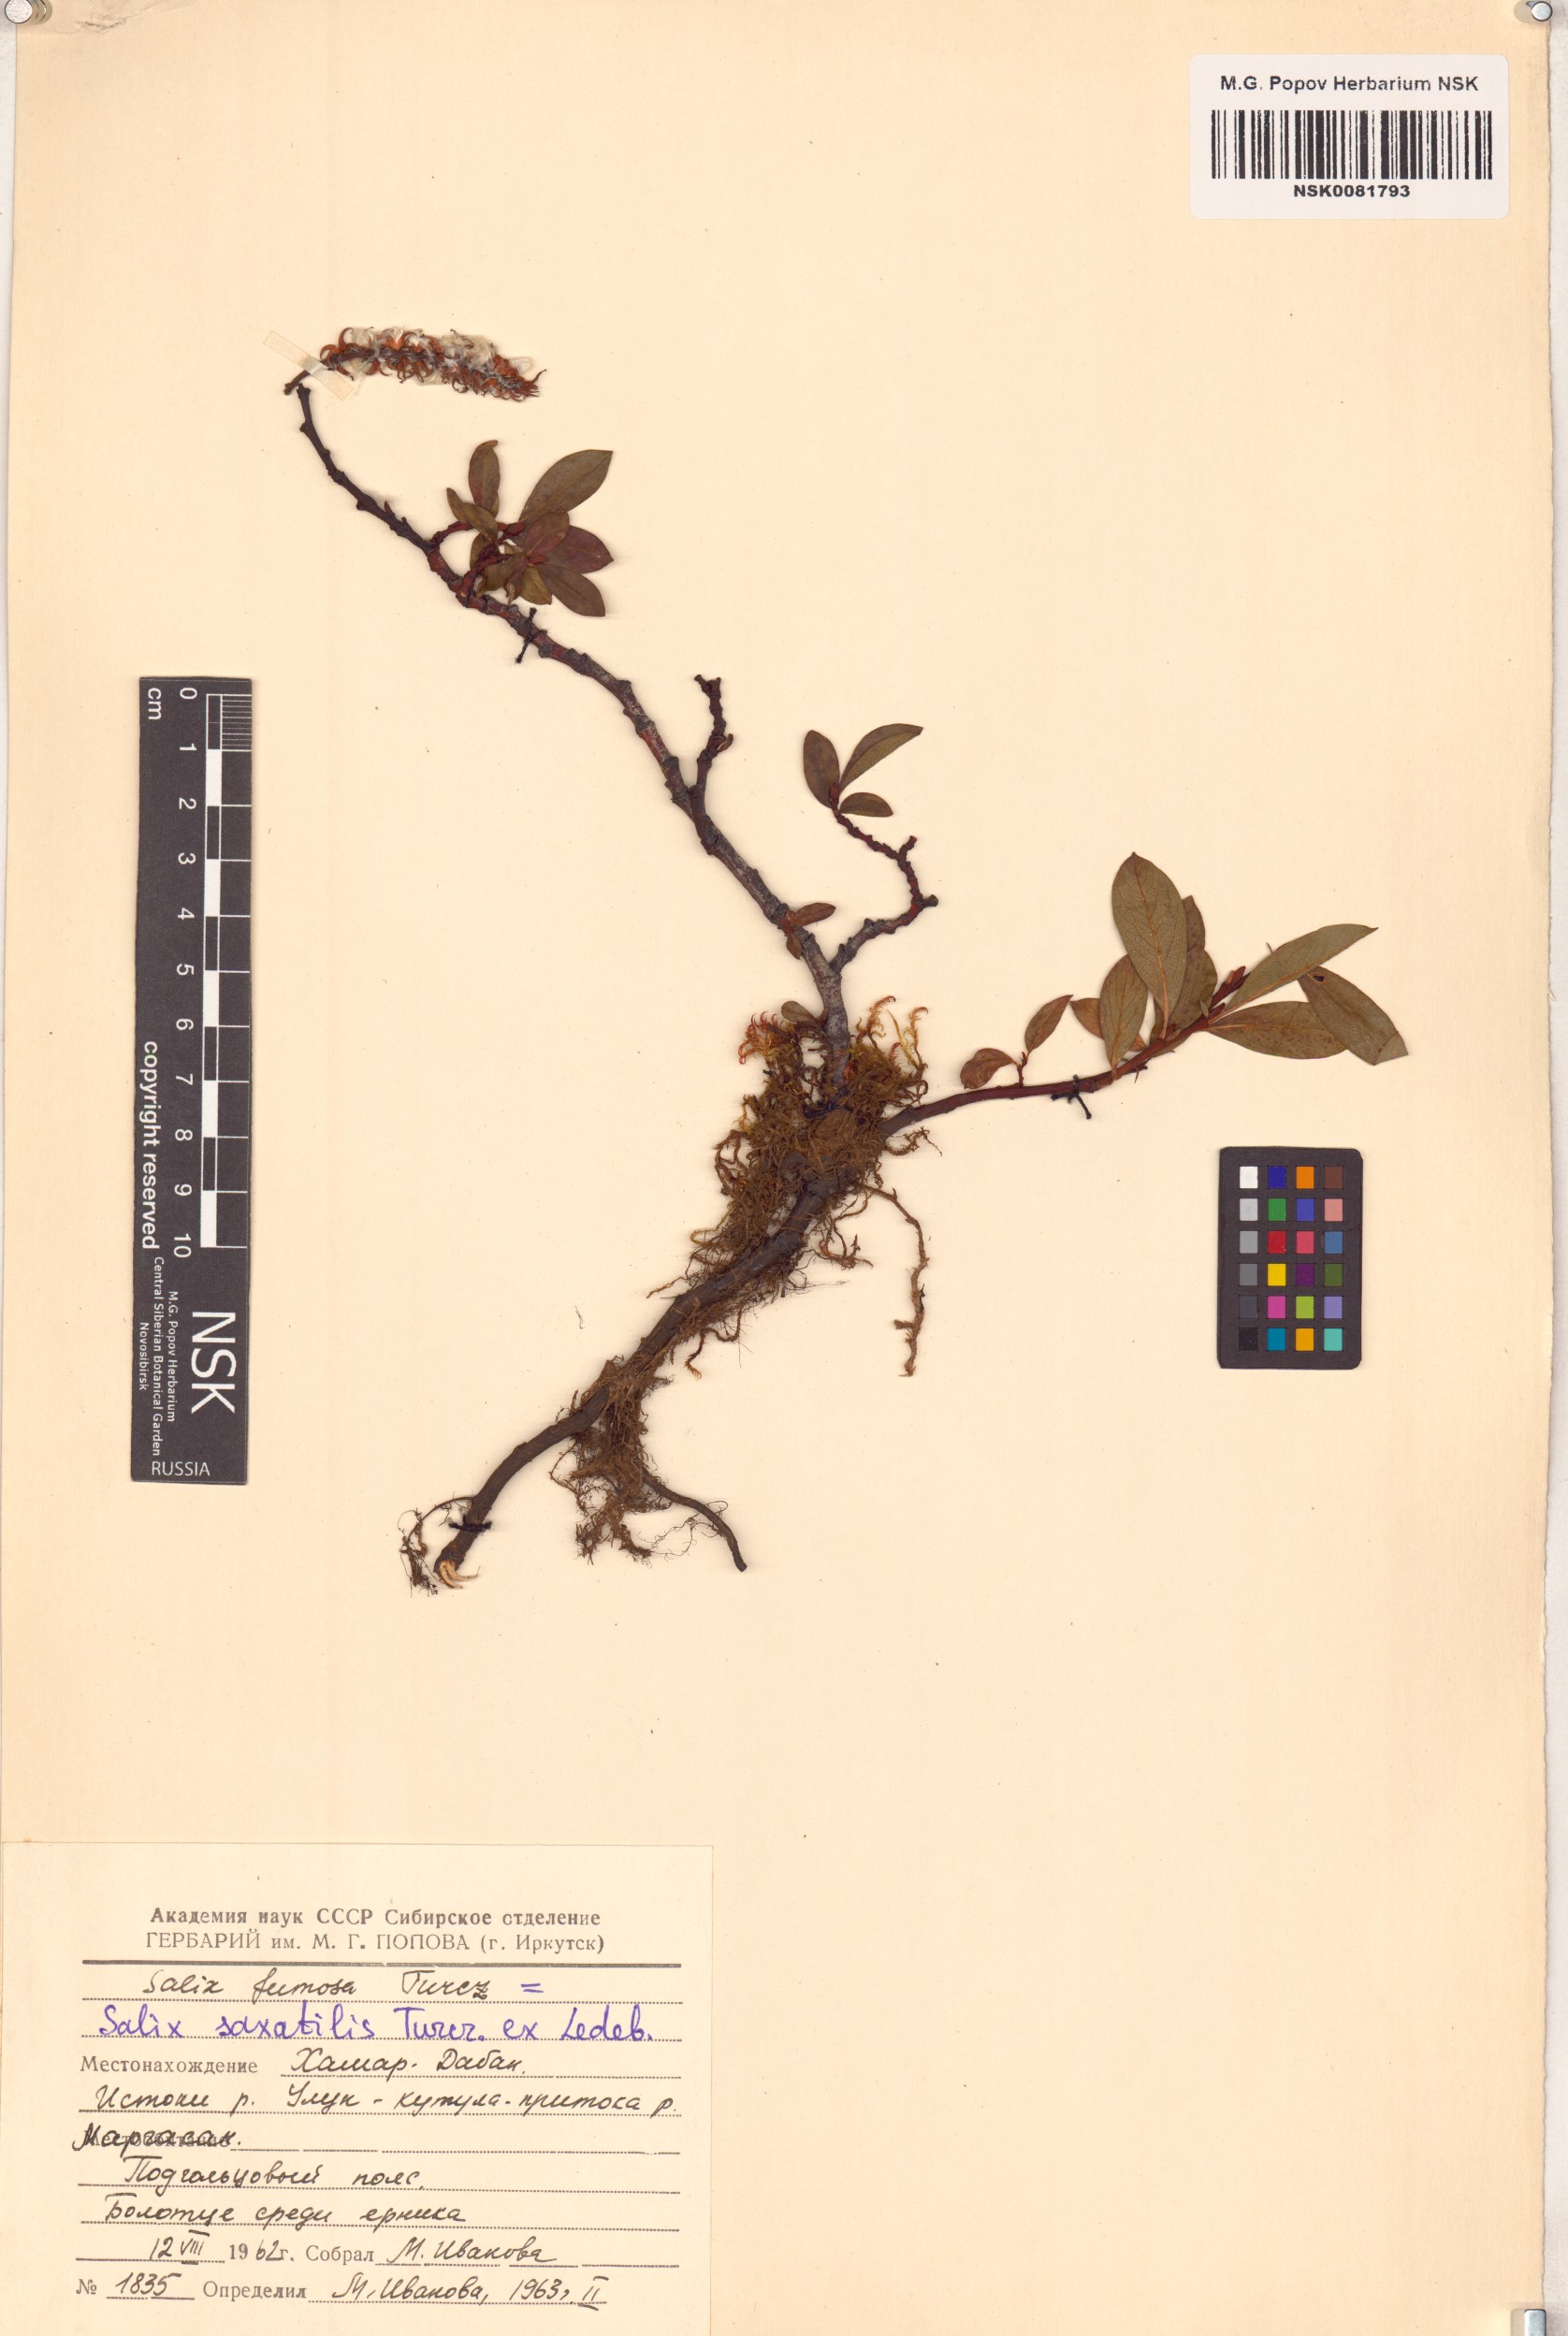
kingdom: Plantae
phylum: Tracheophyta
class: Magnoliopsida
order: Malpighiales
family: Salicaceae
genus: Salix
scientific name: Salix saxatilis
